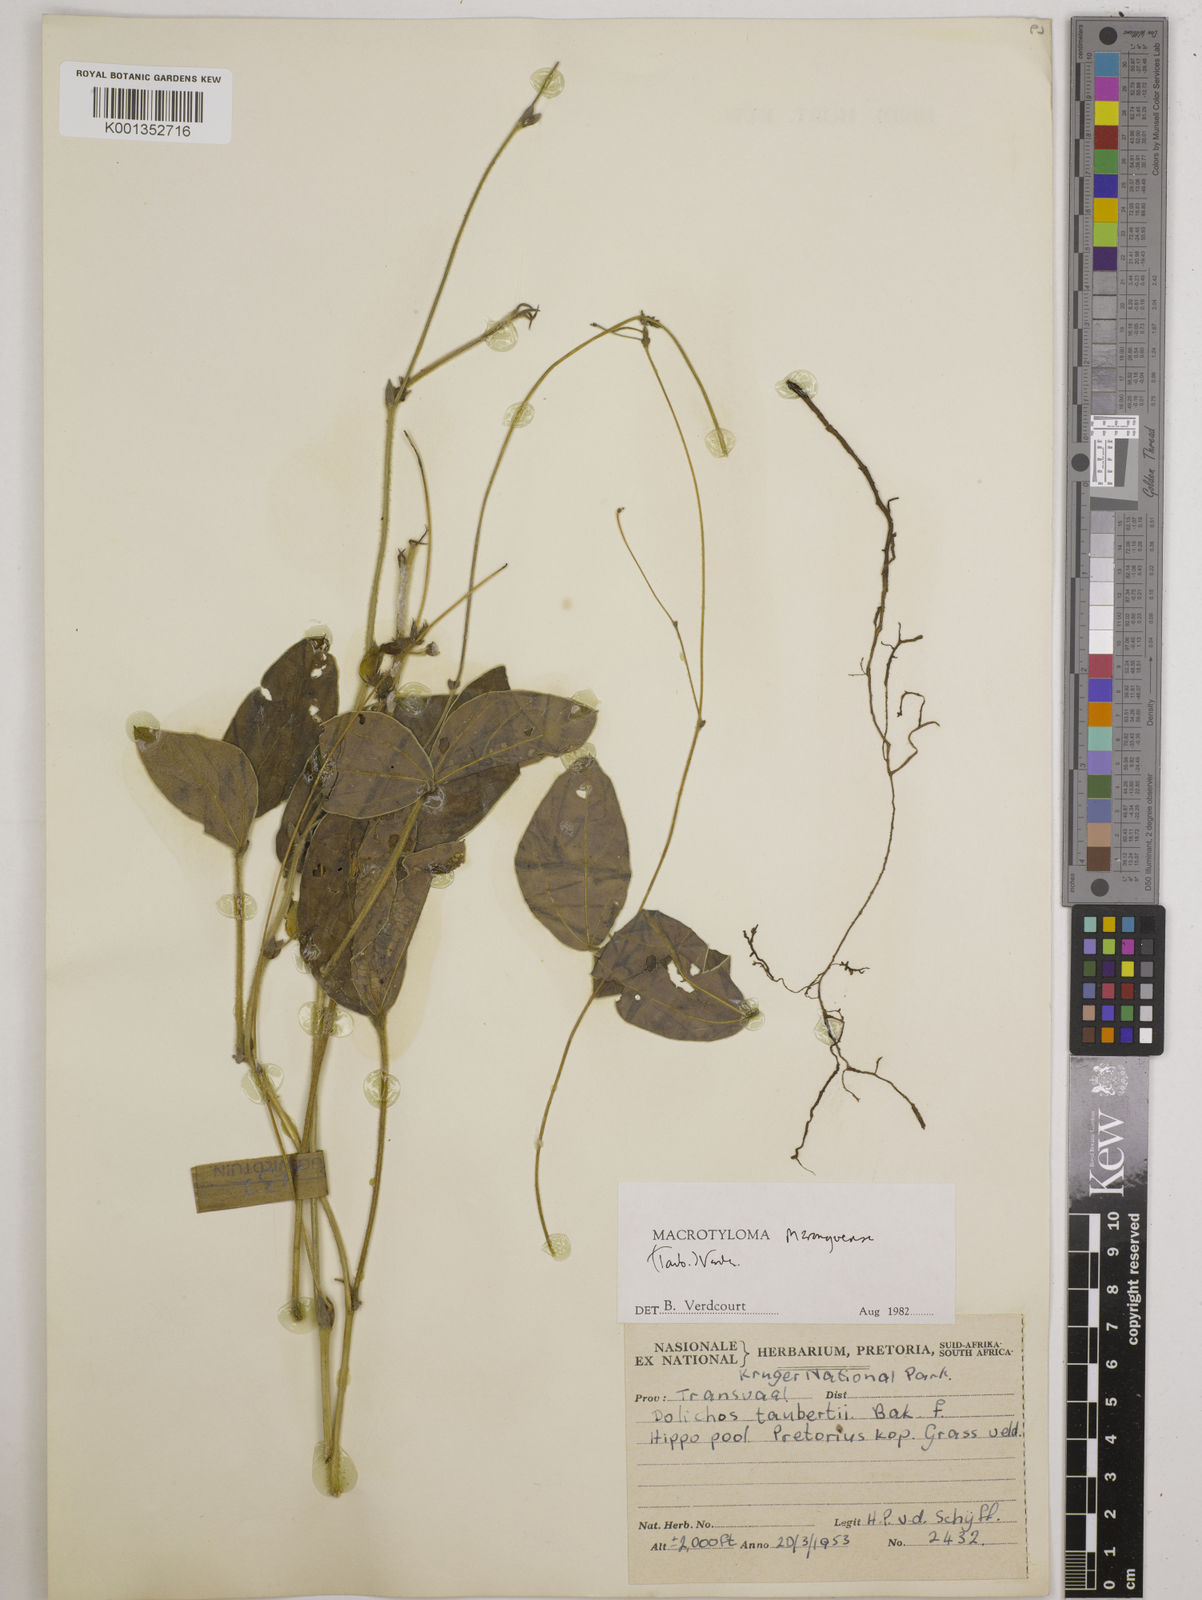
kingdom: Plantae
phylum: Tracheophyta
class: Magnoliopsida
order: Fabales
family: Fabaceae
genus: Macrotyloma
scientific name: Macrotyloma maranguense
